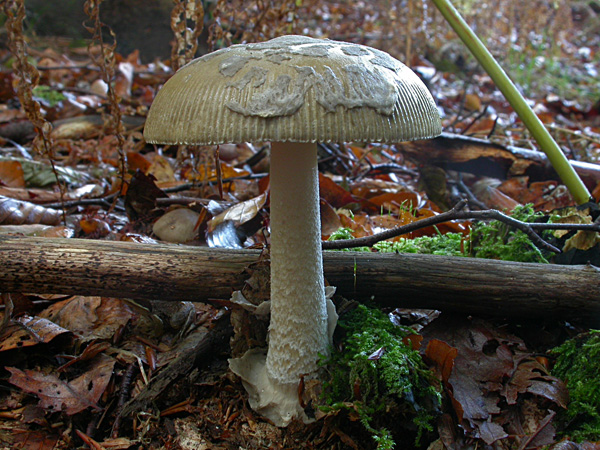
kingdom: Fungi
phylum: Basidiomycota
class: Agaricomycetes
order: Agaricales
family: Amanitaceae
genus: Amanita
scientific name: Amanita submembranacea
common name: gråspættet kam-fluesvamp
